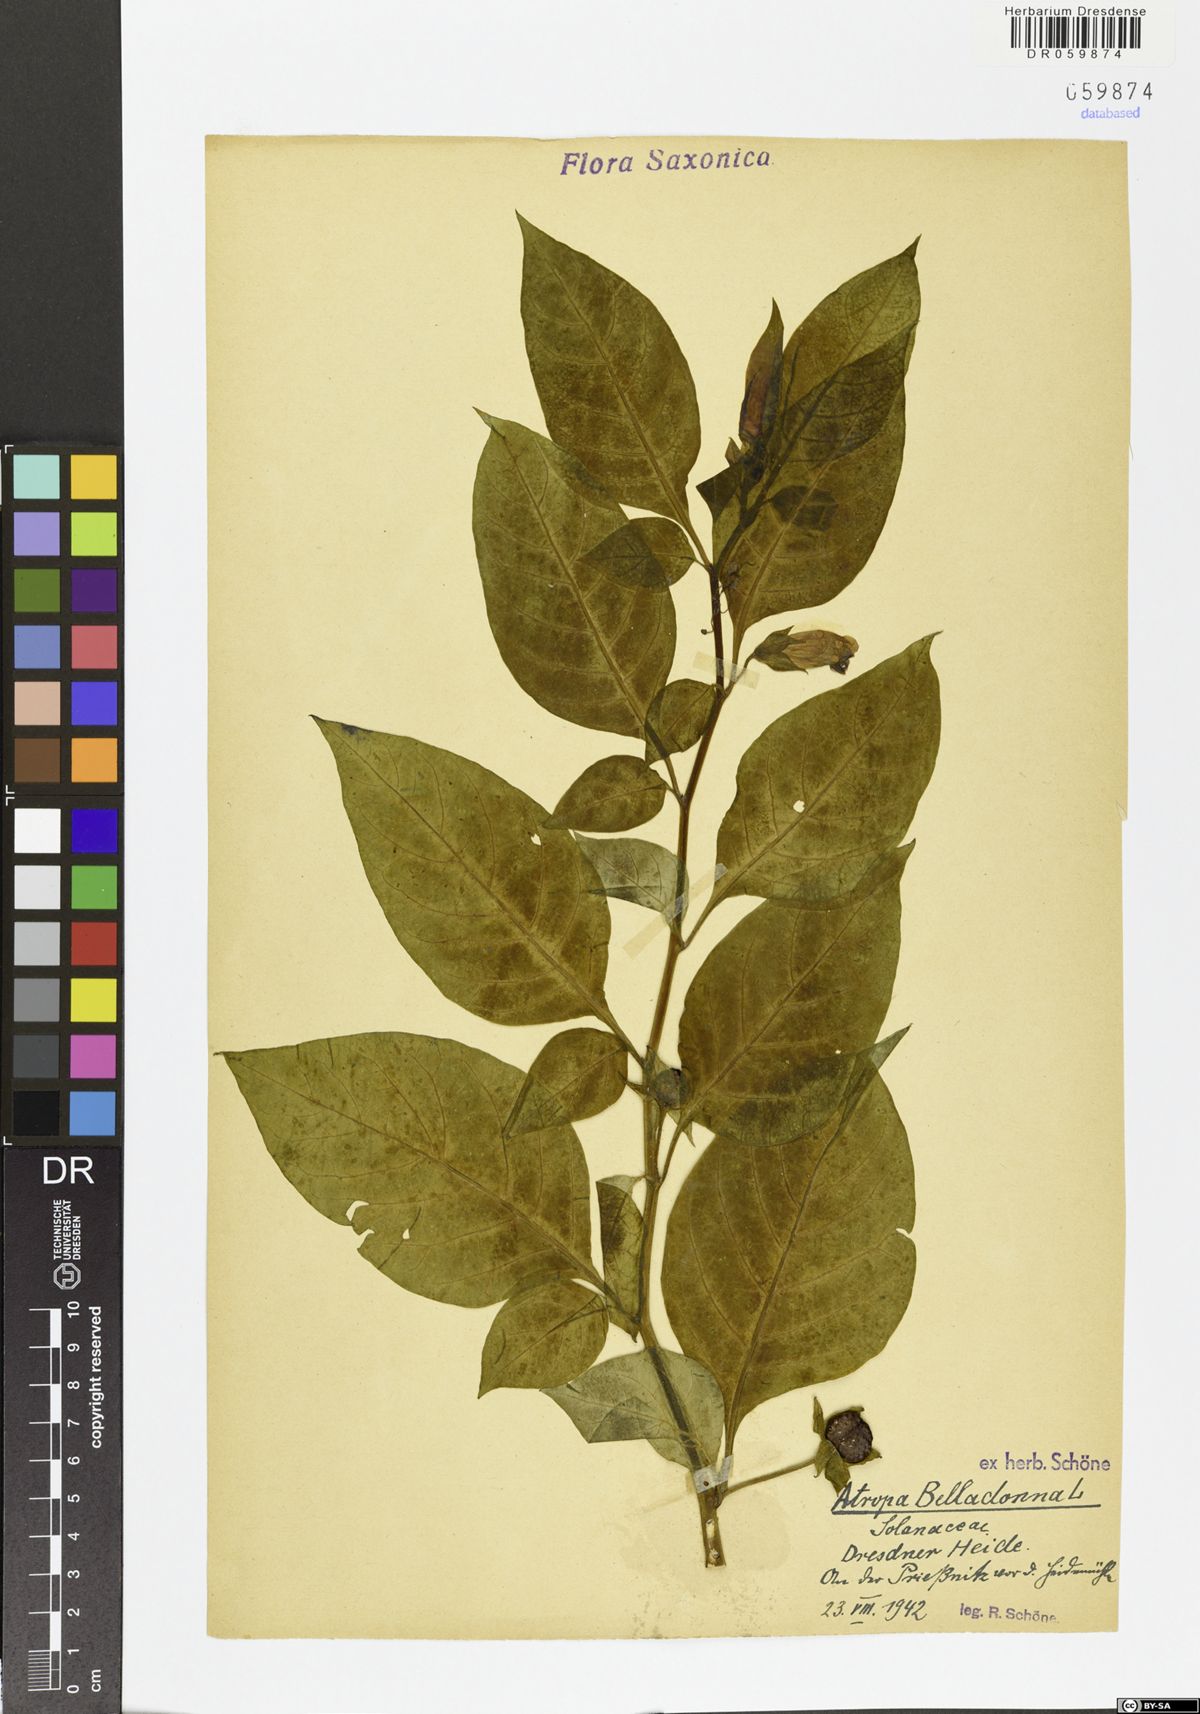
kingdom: Plantae
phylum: Tracheophyta
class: Magnoliopsida
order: Solanales
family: Solanaceae
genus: Atropa
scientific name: Atropa belladonna
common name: Deadly nightshade
